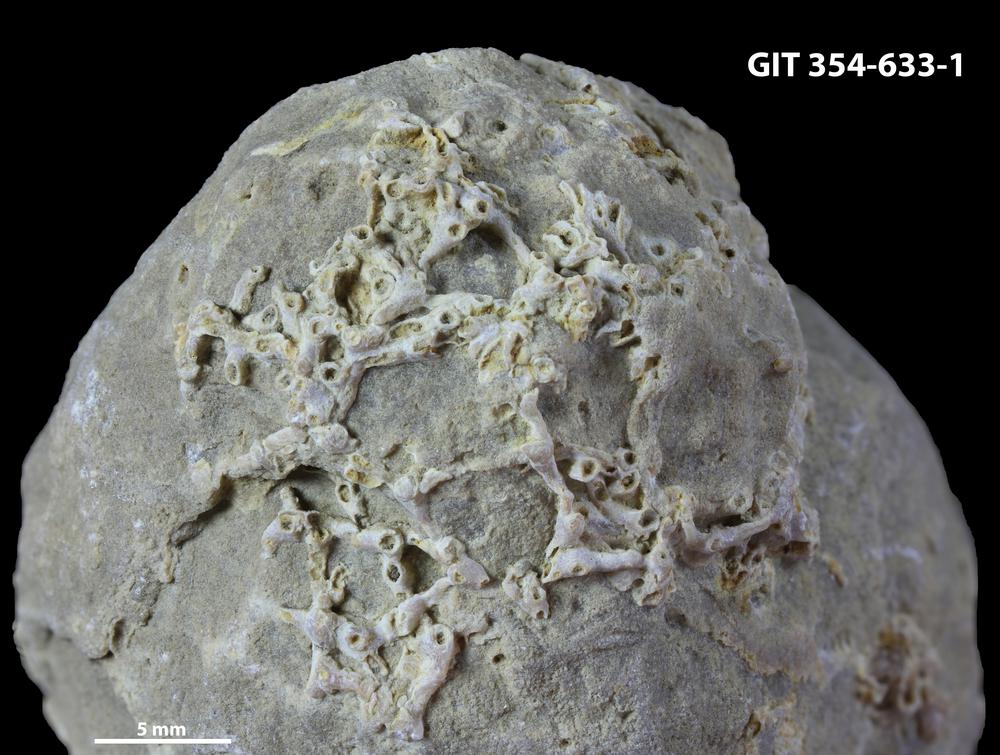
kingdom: Animalia
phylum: Cnidaria
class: Anthozoa
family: Auloporidae
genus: Aulopora
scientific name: Aulopora
